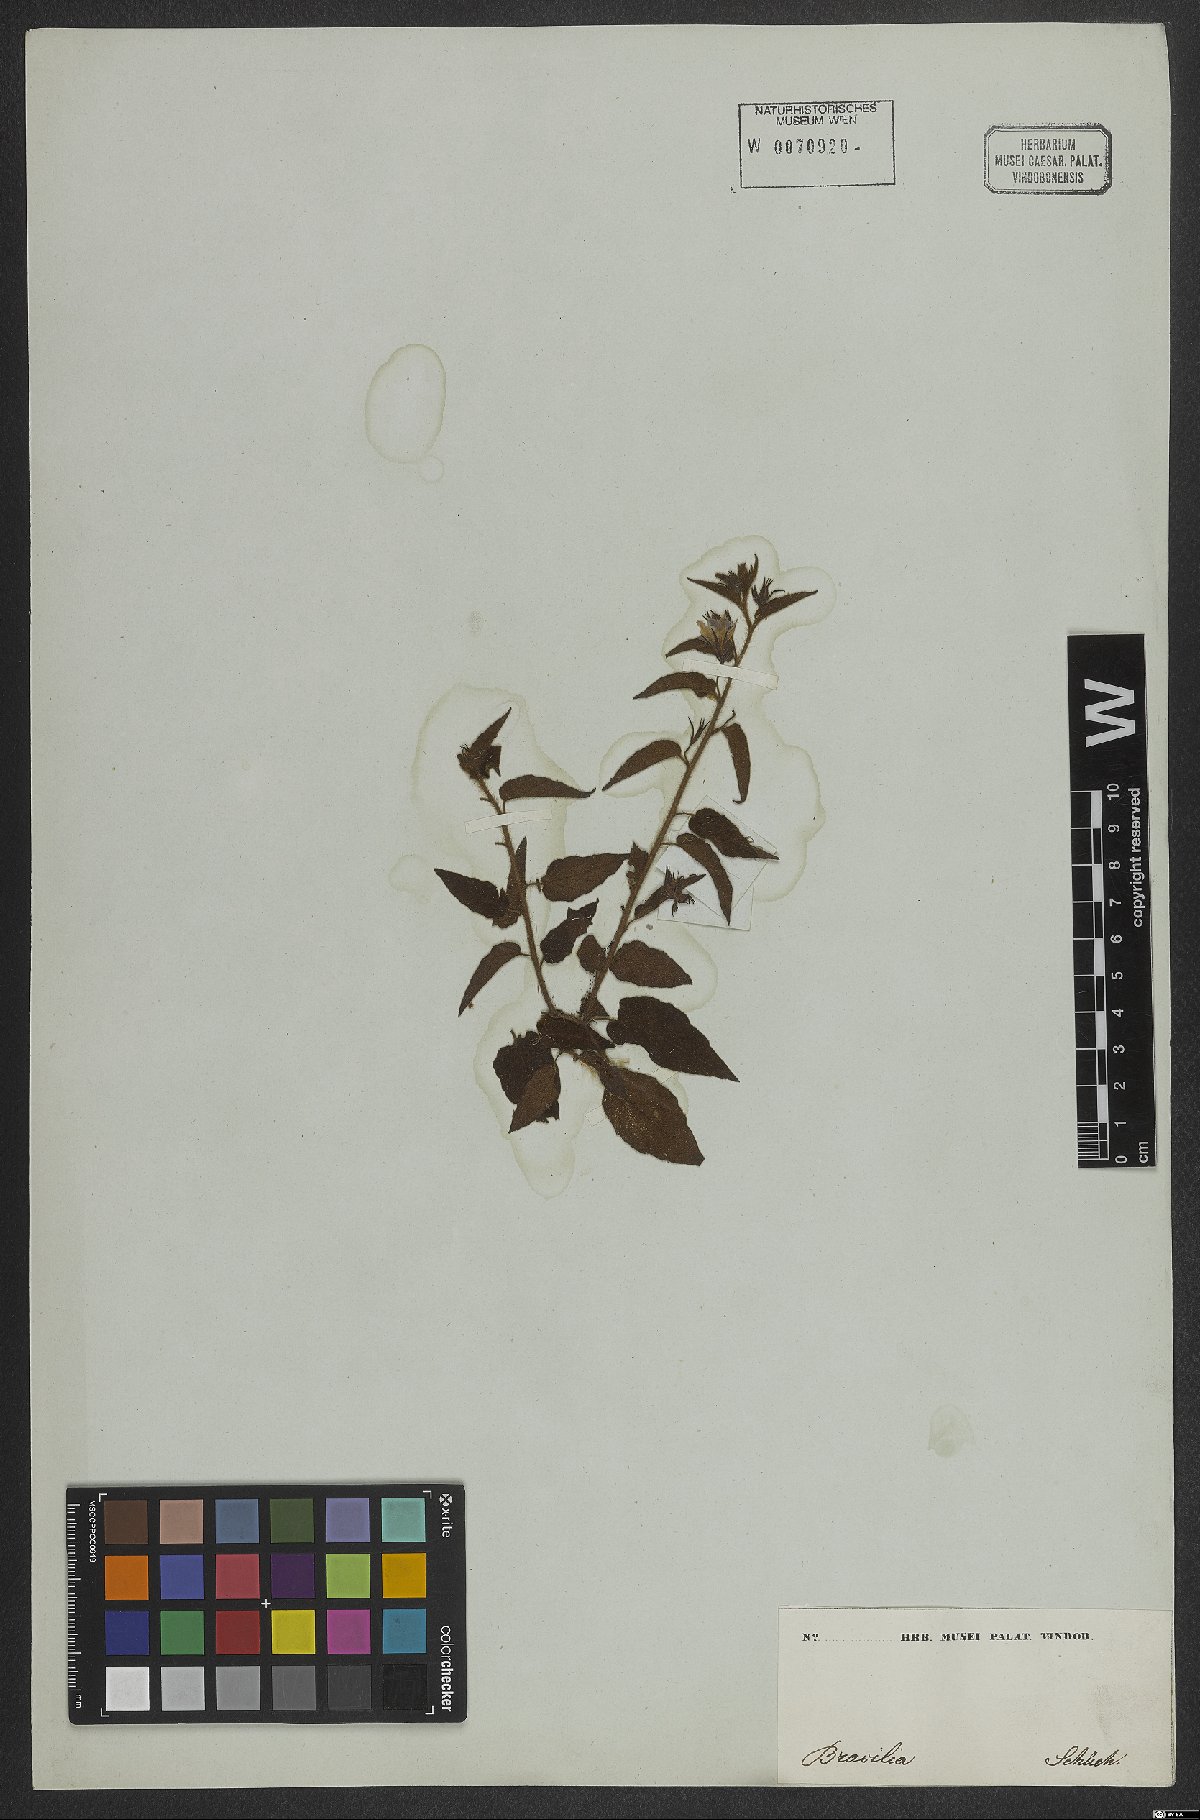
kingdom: Plantae
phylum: Tracheophyta
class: Magnoliopsida
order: Malvales
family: Sterculiaceae
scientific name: Sterculiaceae
